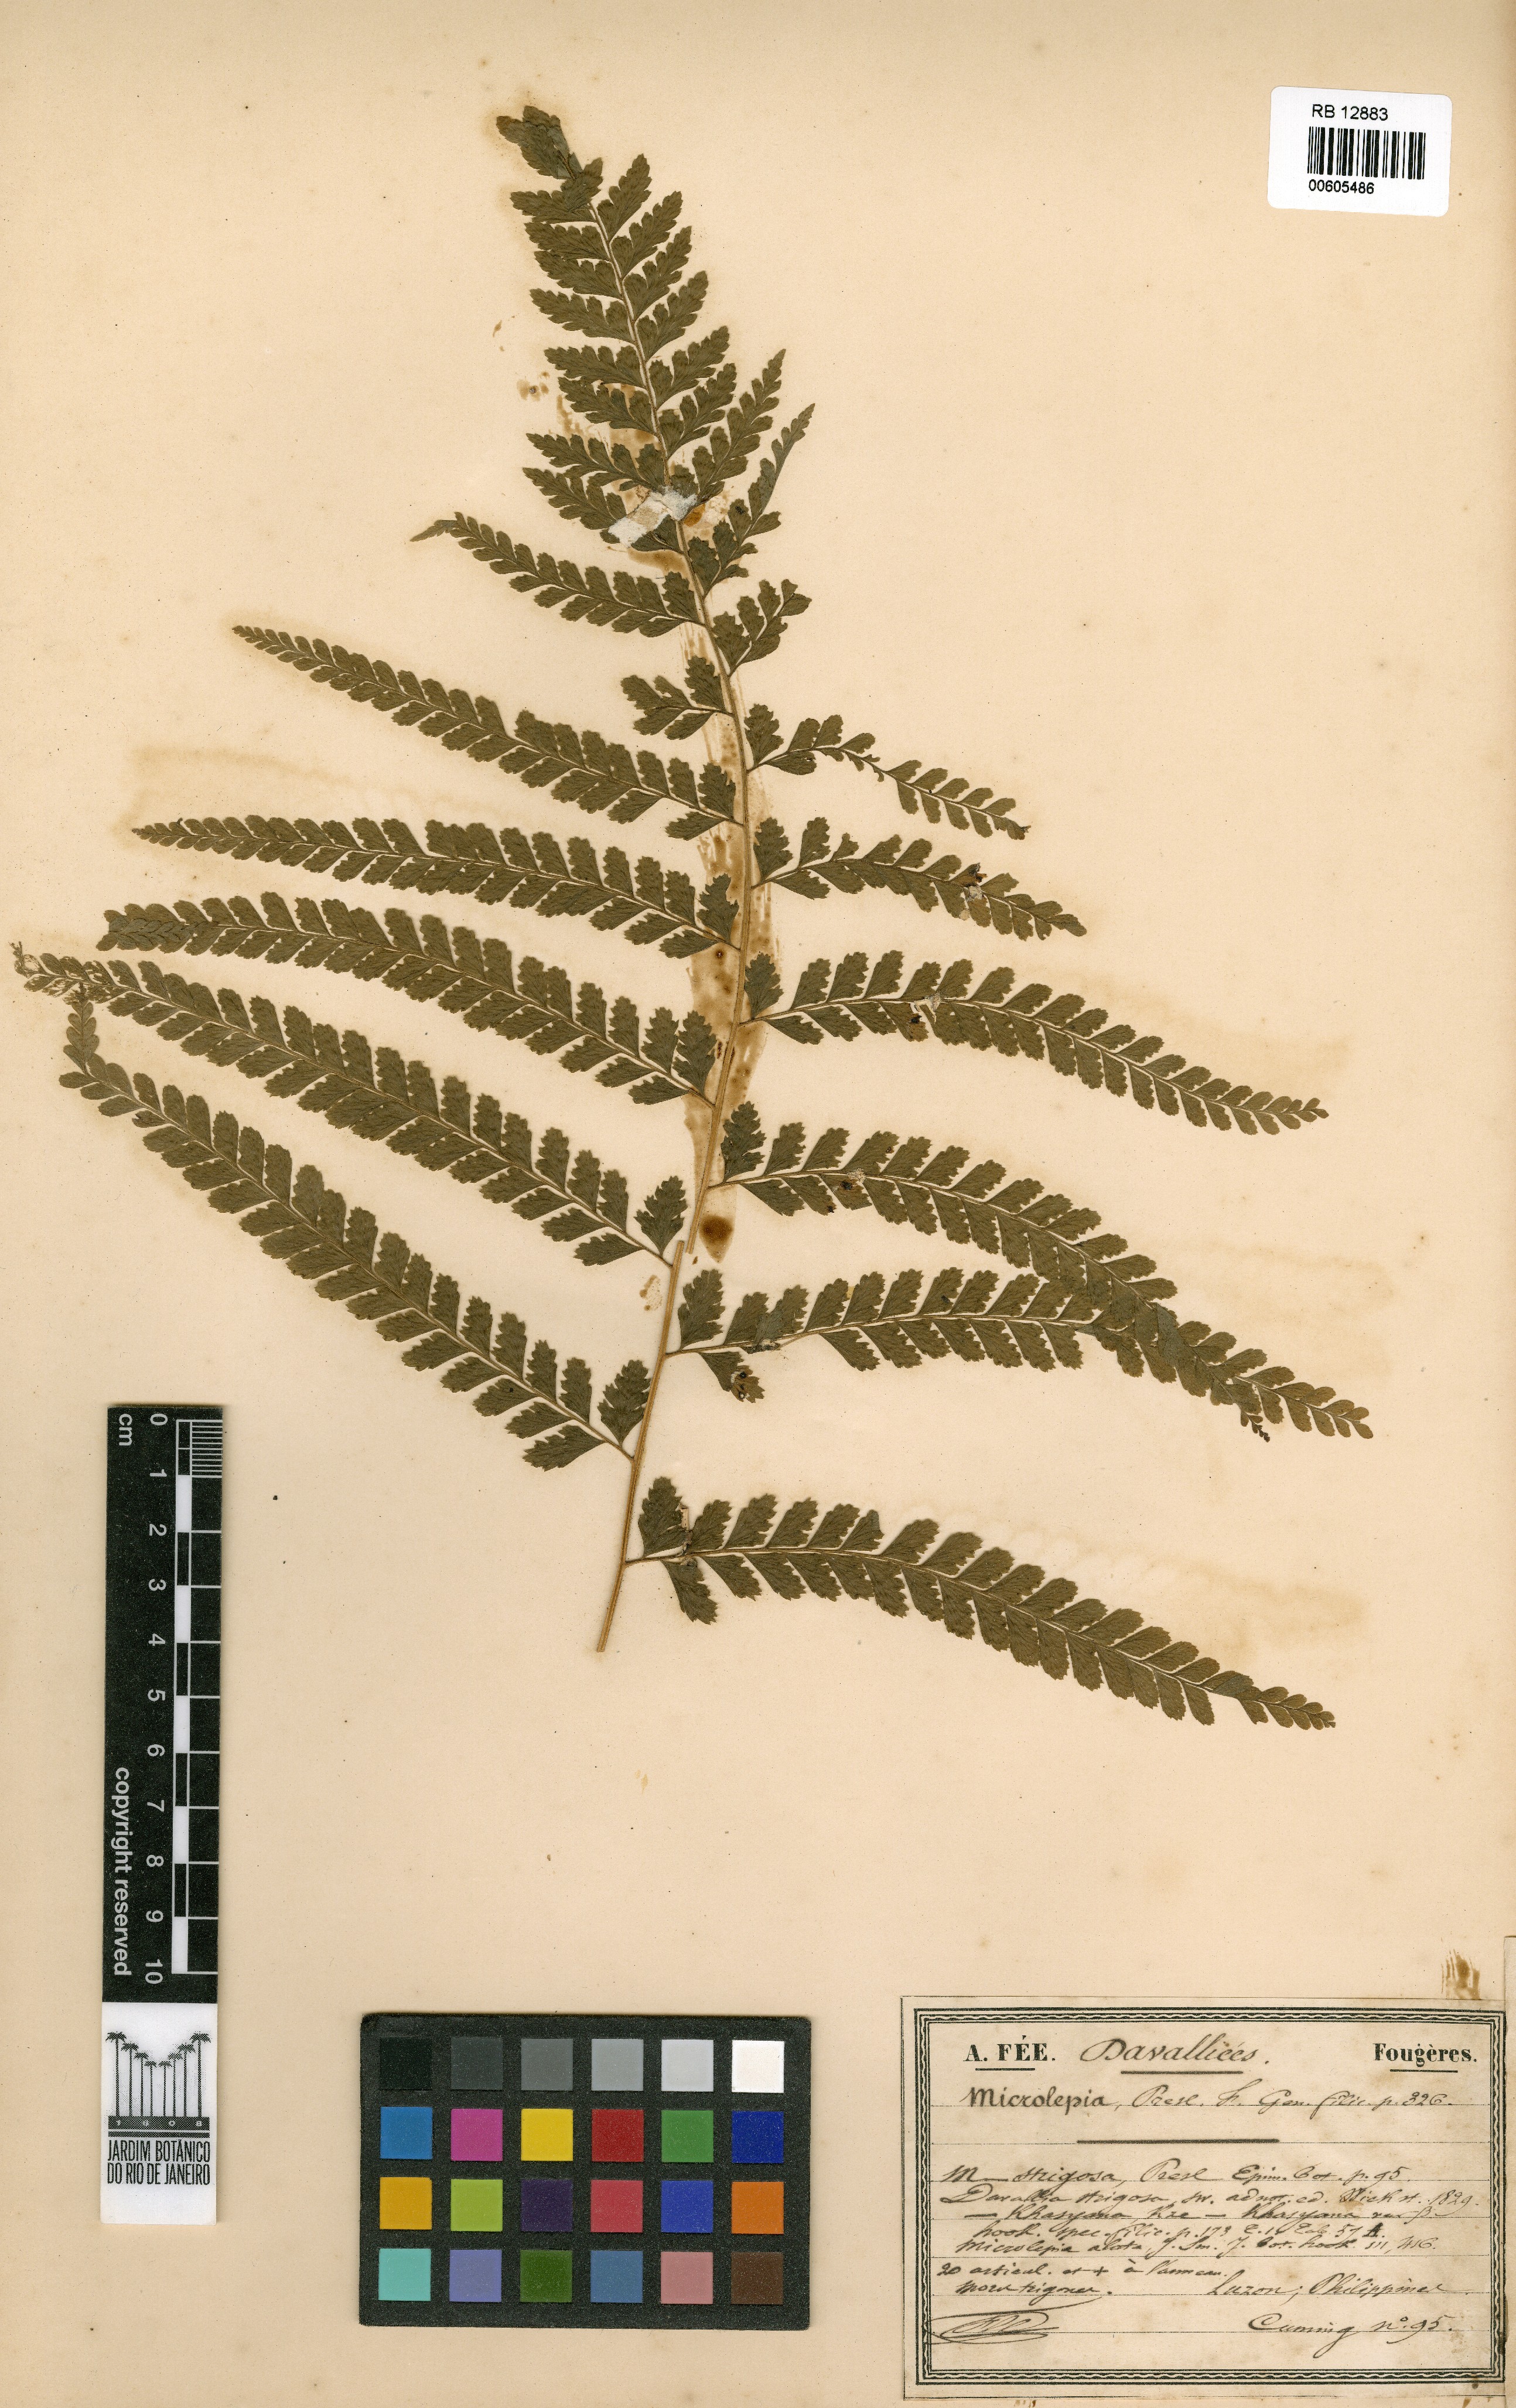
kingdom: Plantae
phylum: Tracheophyta
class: Polypodiopsida
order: Polypodiales
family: Dennstaedtiaceae
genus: Microlepia
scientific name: Microlepia strigosa
